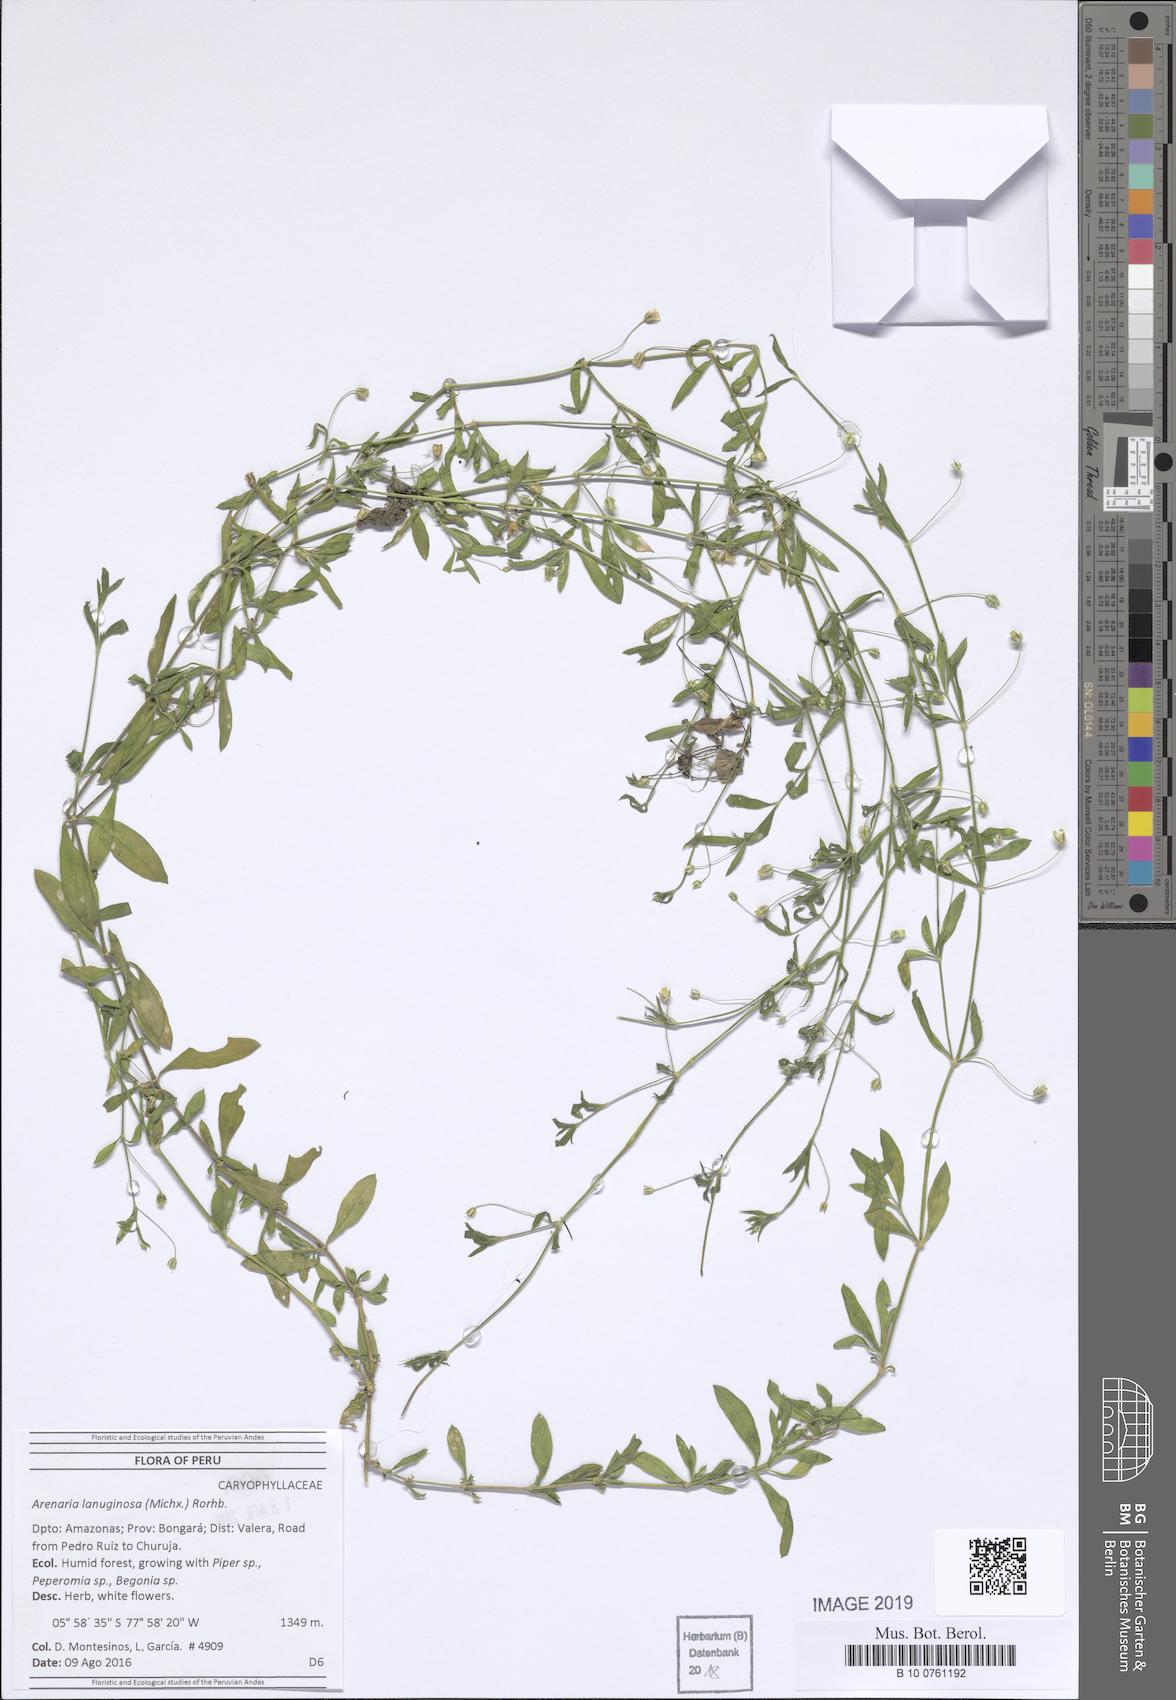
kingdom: Plantae
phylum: Tracheophyta
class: Magnoliopsida
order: Caryophyllales
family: Caryophyllaceae
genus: Arenaria
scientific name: Arenaria lanuginosa
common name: Spread sandwort
